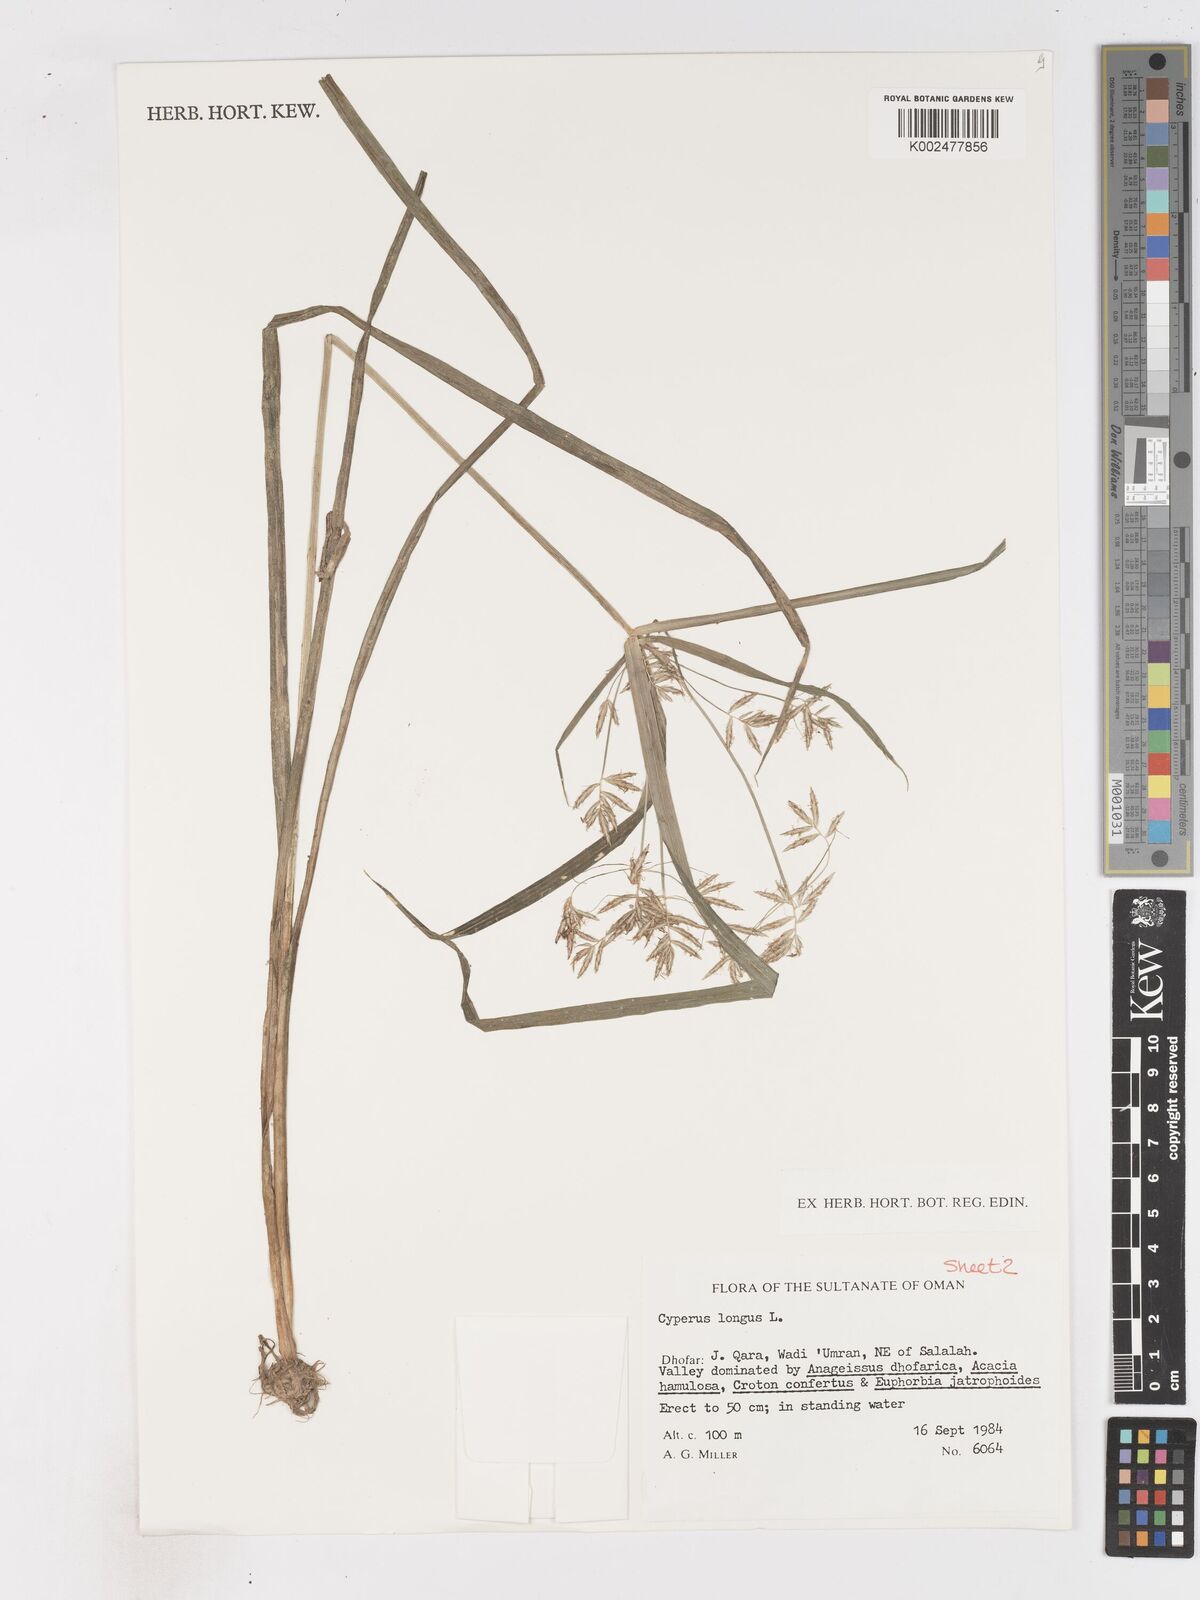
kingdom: Plantae
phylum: Tracheophyta
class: Liliopsida
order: Poales
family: Cyperaceae
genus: Cyperus
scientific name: Cyperus longus
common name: Galingale
